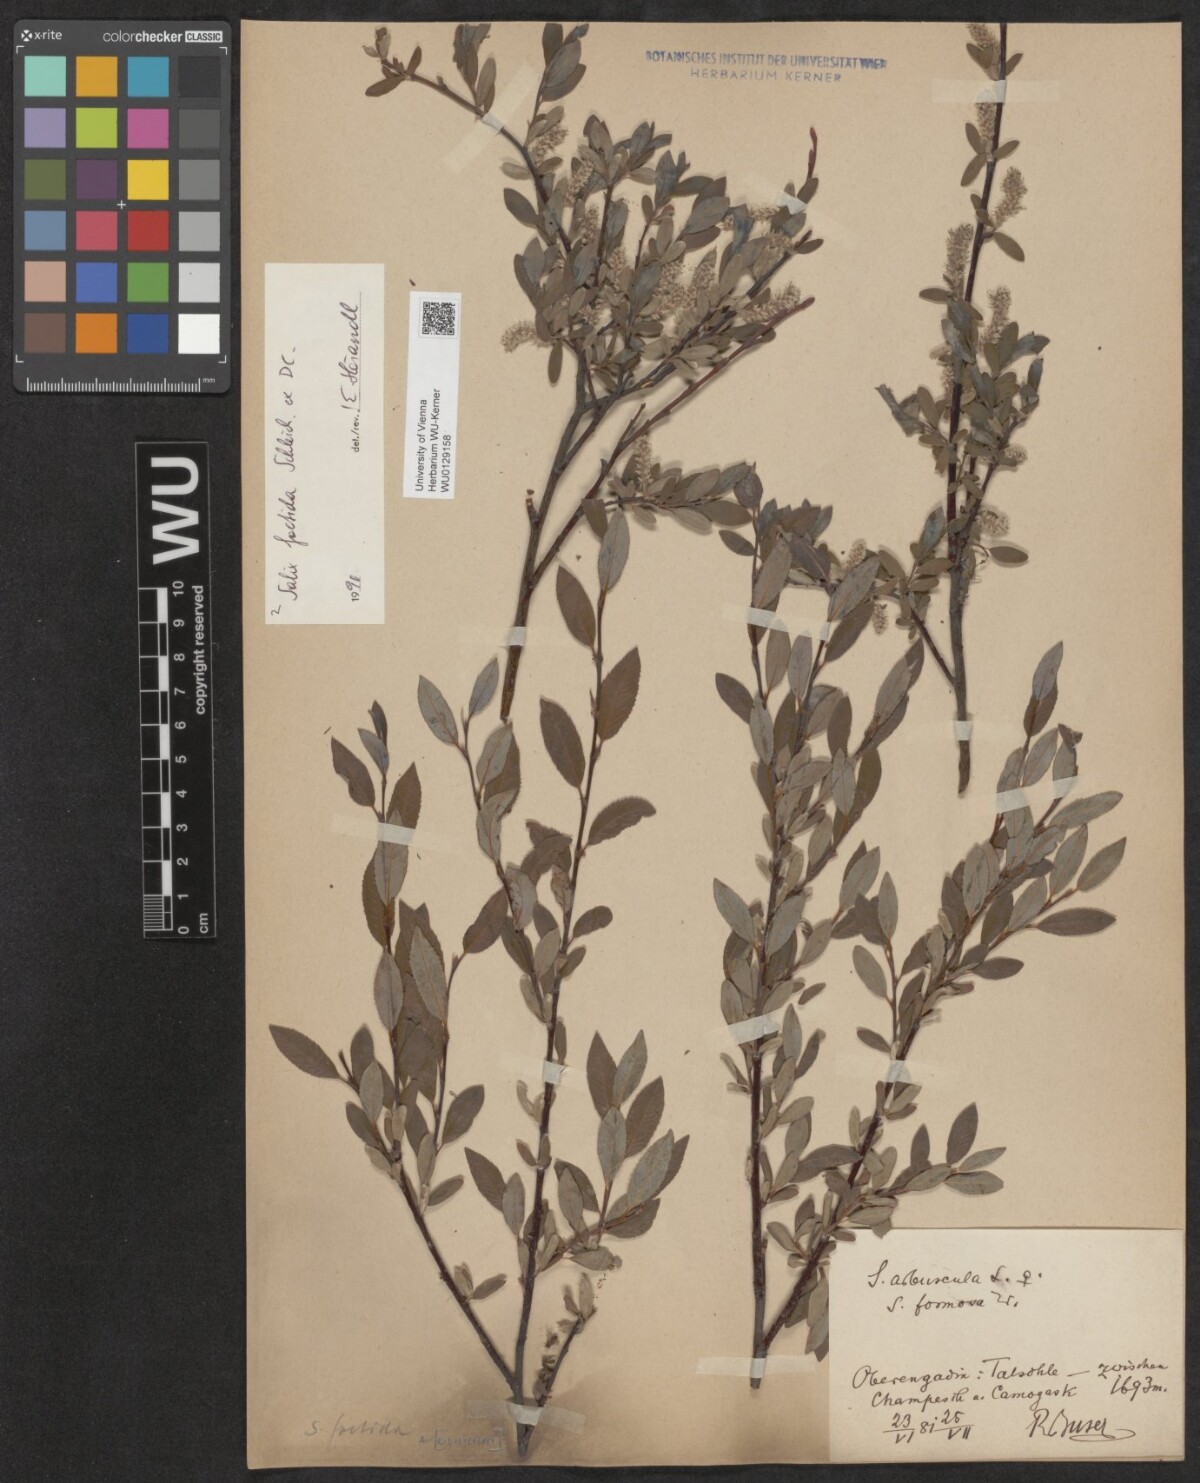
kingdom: Plantae
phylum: Tracheophyta
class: Magnoliopsida
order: Malpighiales
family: Salicaceae
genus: Salix
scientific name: Salix foetida
